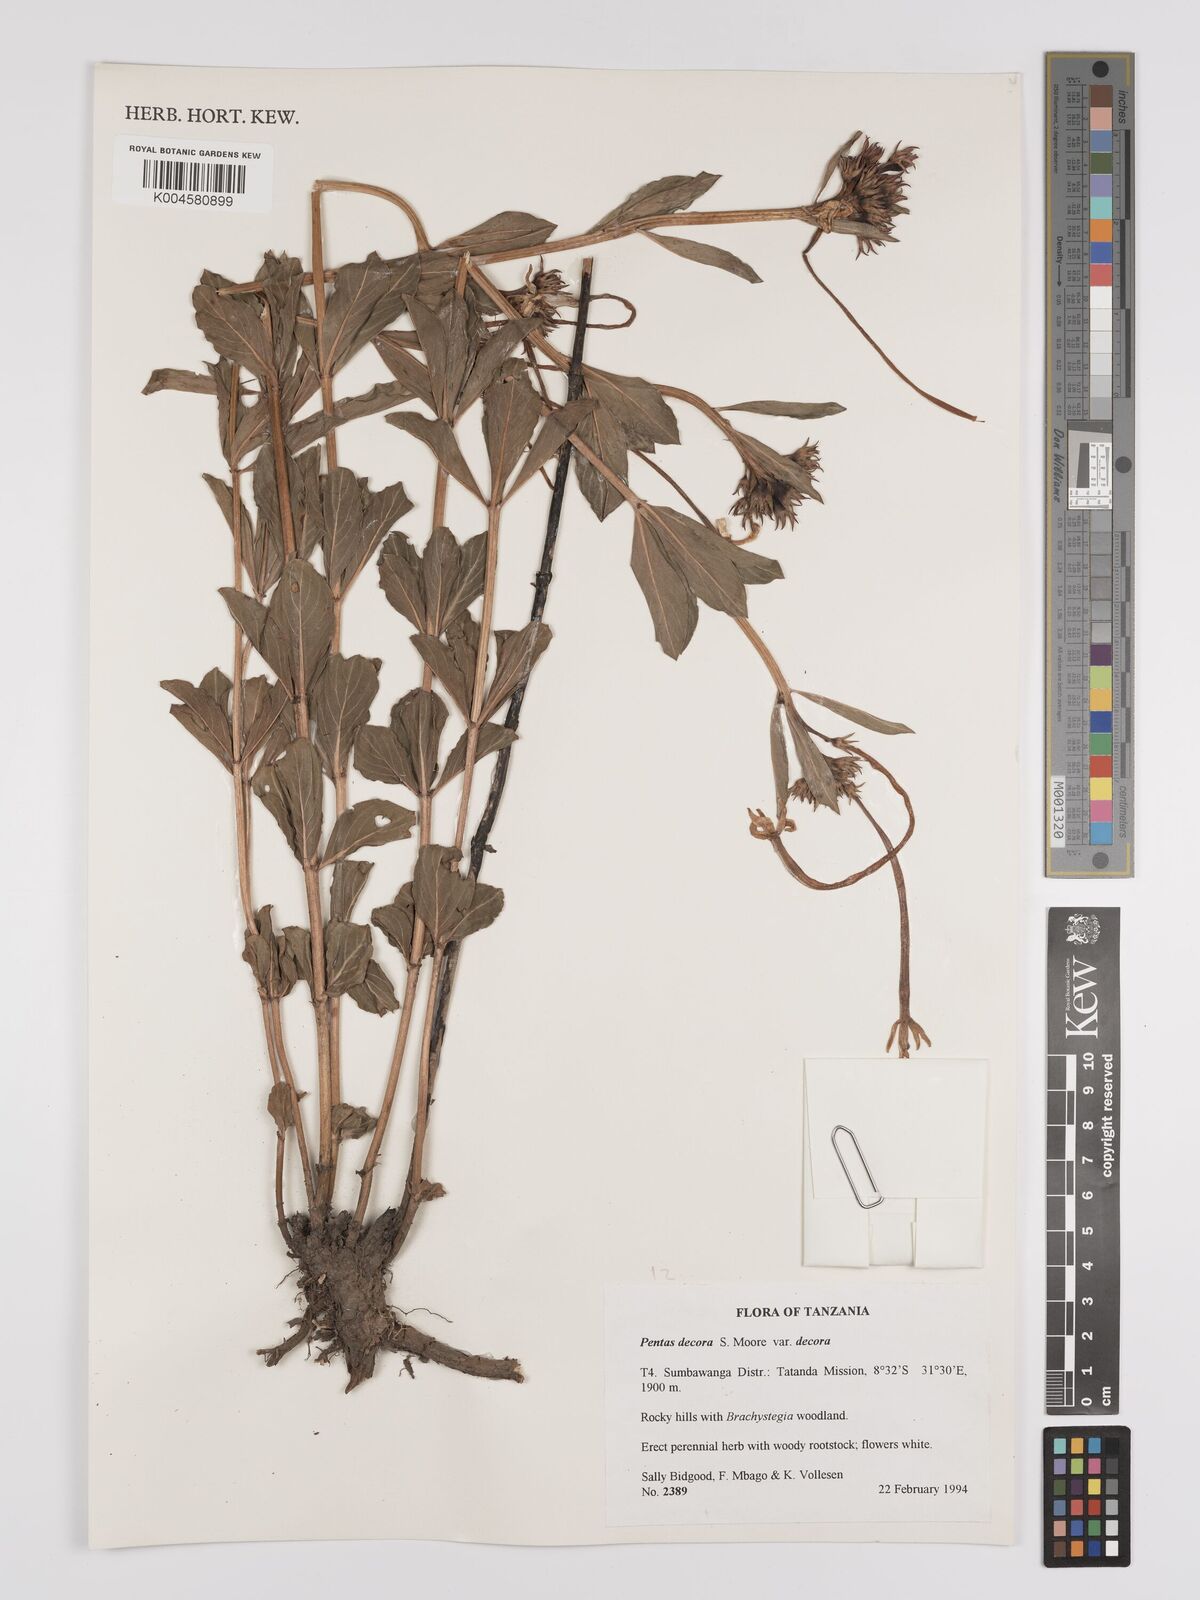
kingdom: Plantae
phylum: Tracheophyta
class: Magnoliopsida
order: Gentianales
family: Rubiaceae
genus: Dolichopentas
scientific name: Dolichopentas decora
